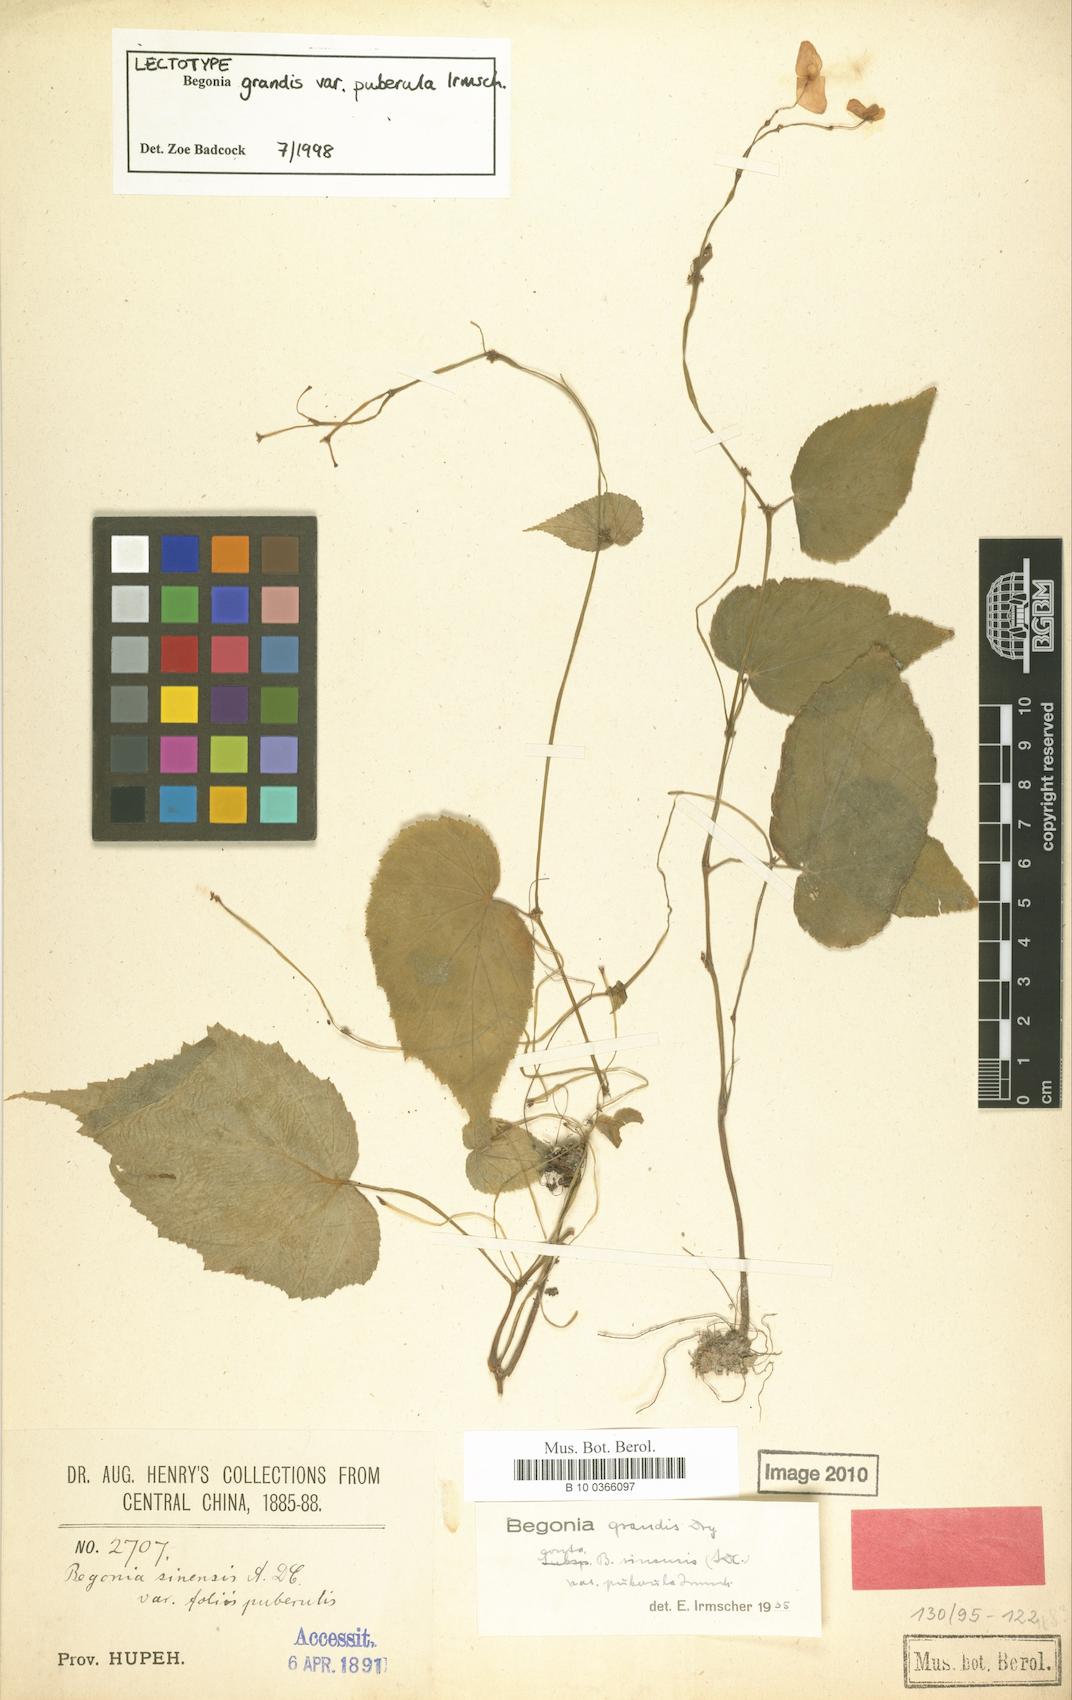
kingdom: Plantae
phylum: Tracheophyta
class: Magnoliopsida
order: Cucurbitales
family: Begoniaceae
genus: Begonia
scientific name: Begonia grandis
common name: Hardy begonia
